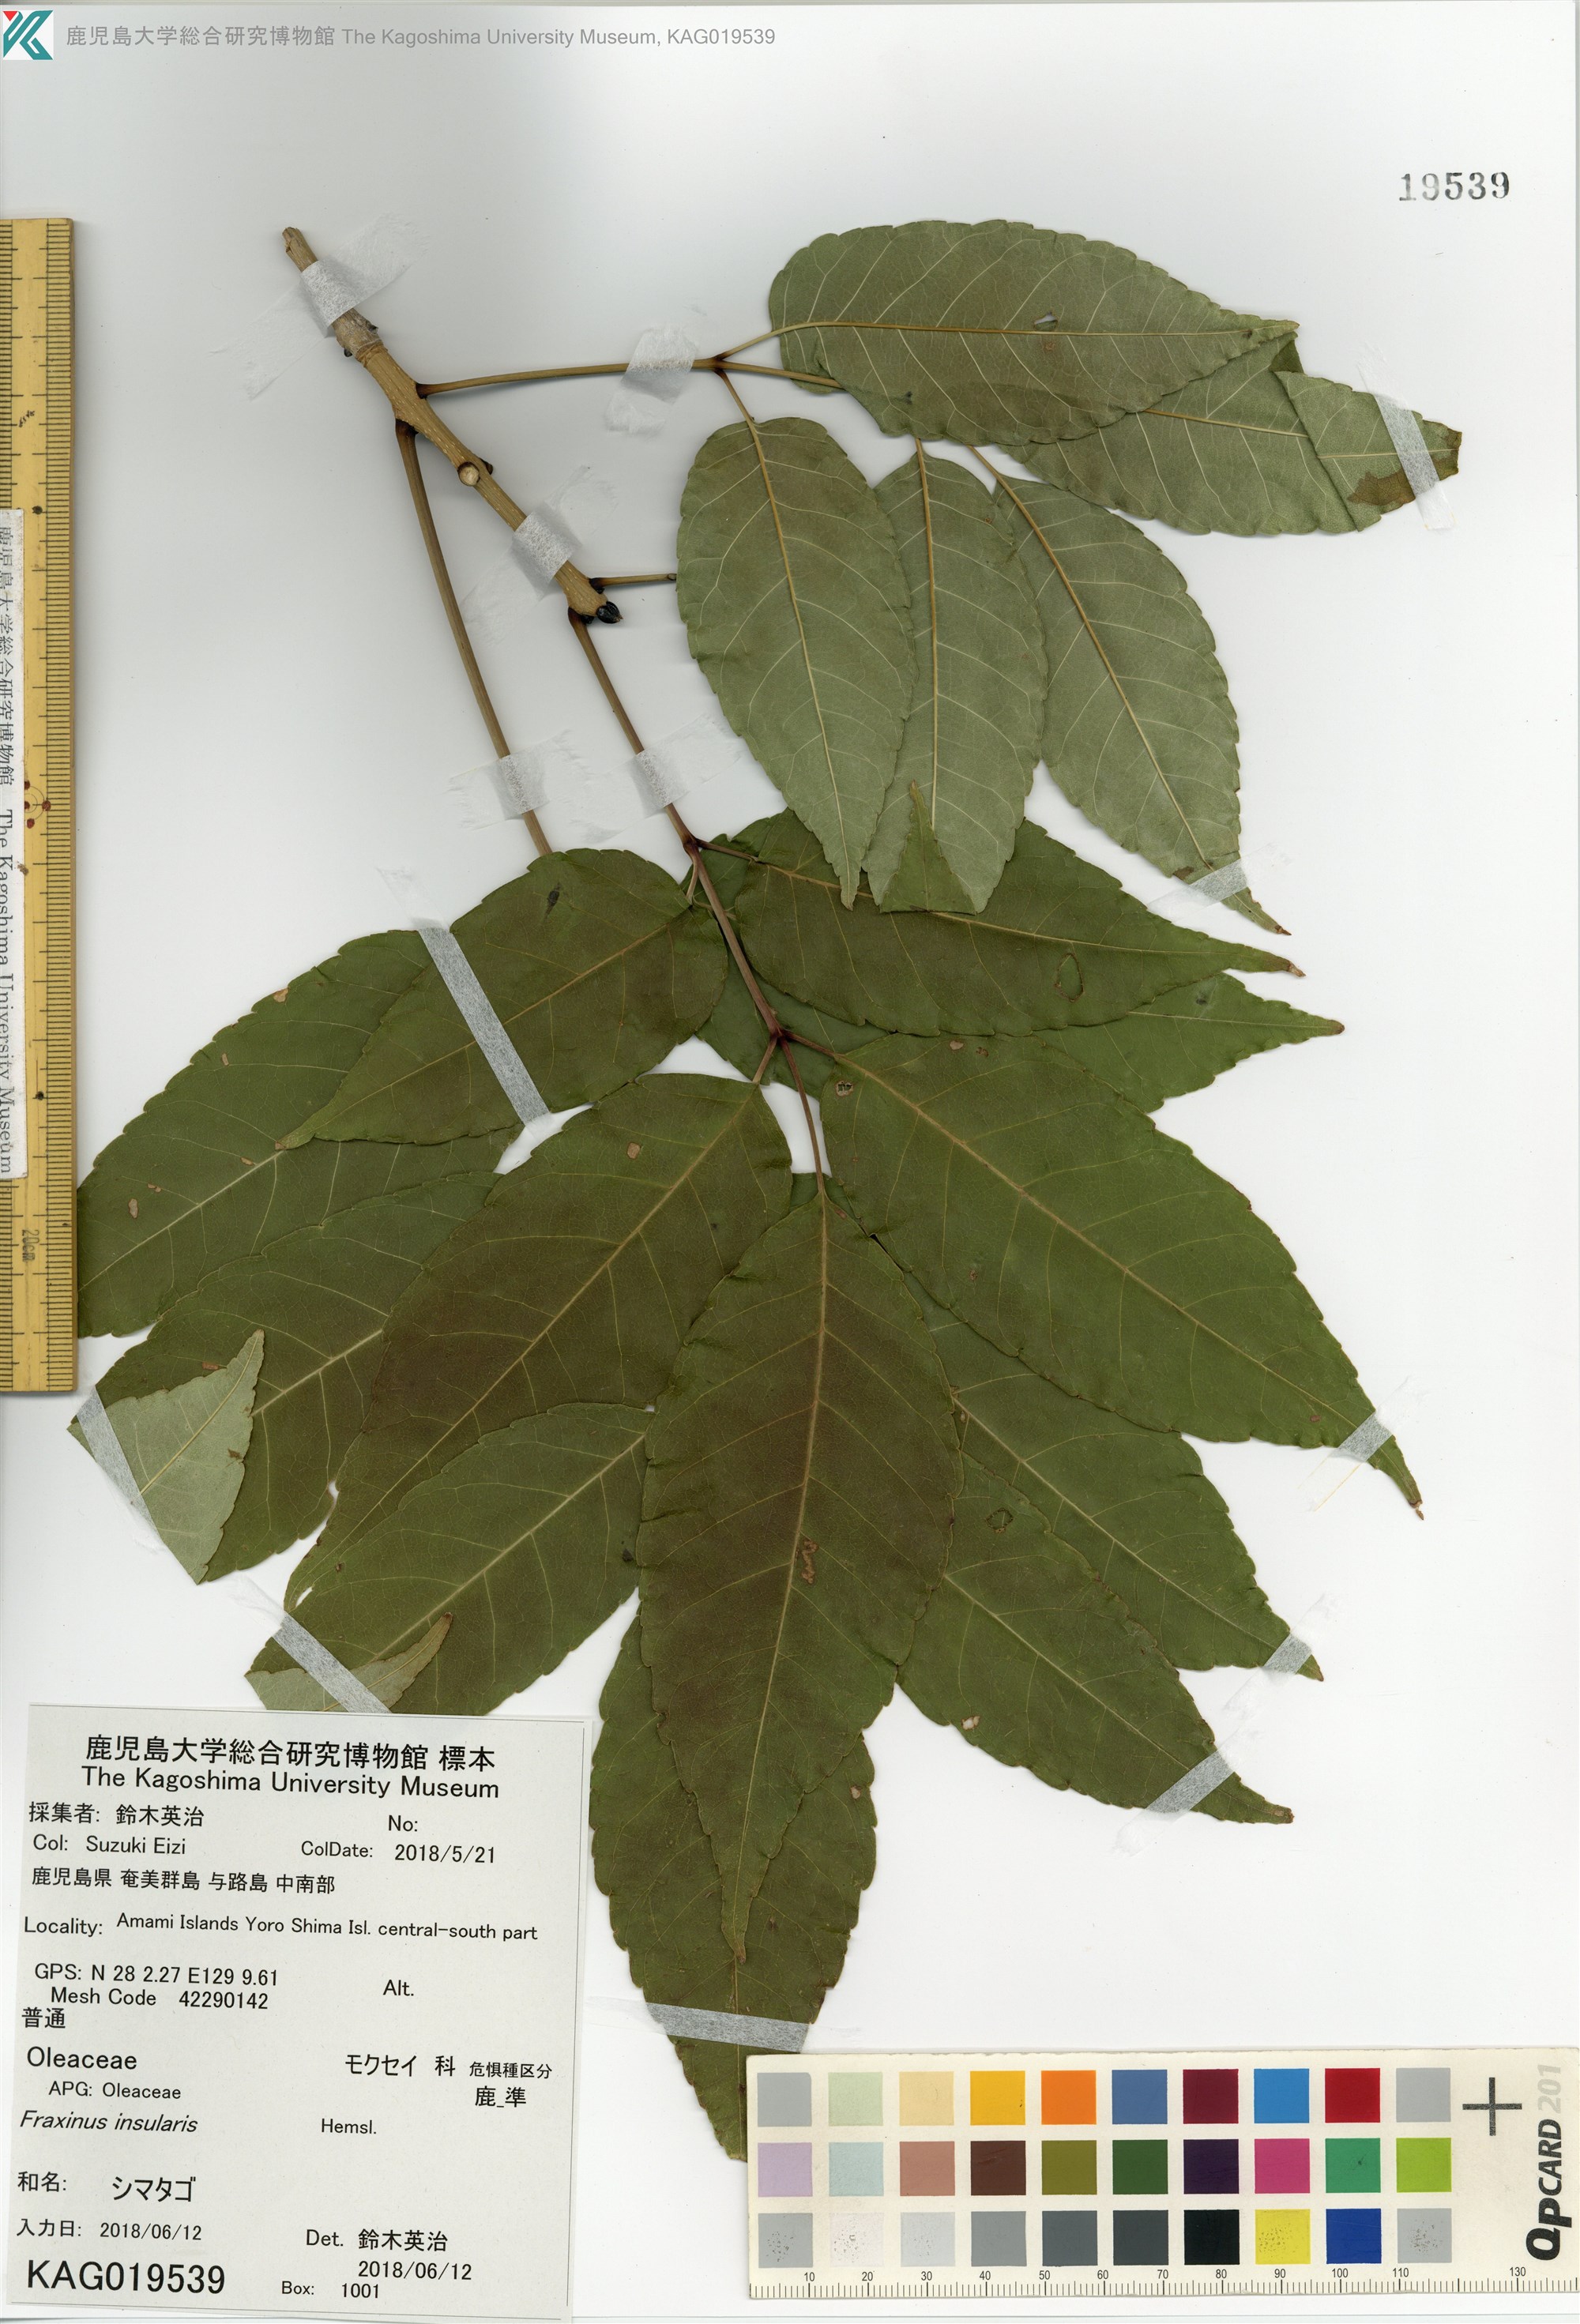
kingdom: Plantae
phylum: Tracheophyta
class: Magnoliopsida
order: Lamiales
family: Oleaceae
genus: Fraxinus
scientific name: Fraxinus insularis
